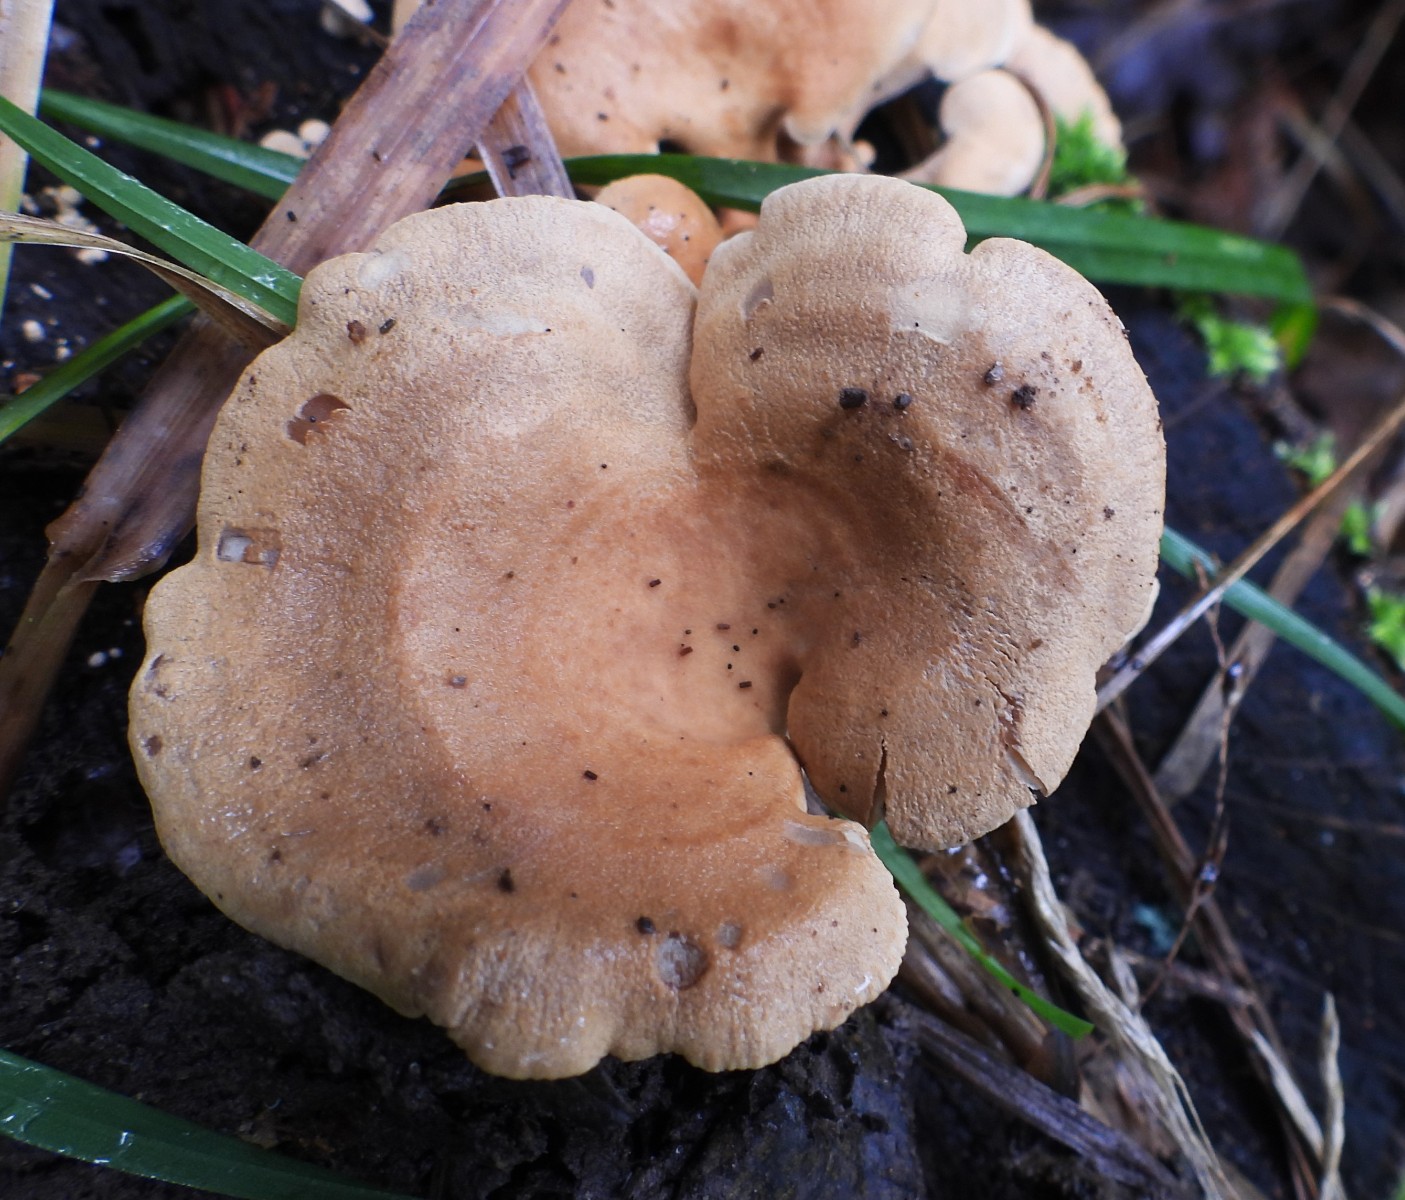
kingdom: Fungi
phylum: Basidiomycota
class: Agaricomycetes
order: Agaricales
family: Mycenaceae
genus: Panellus
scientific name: Panellus stipticus
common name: kliddet epaulethat
